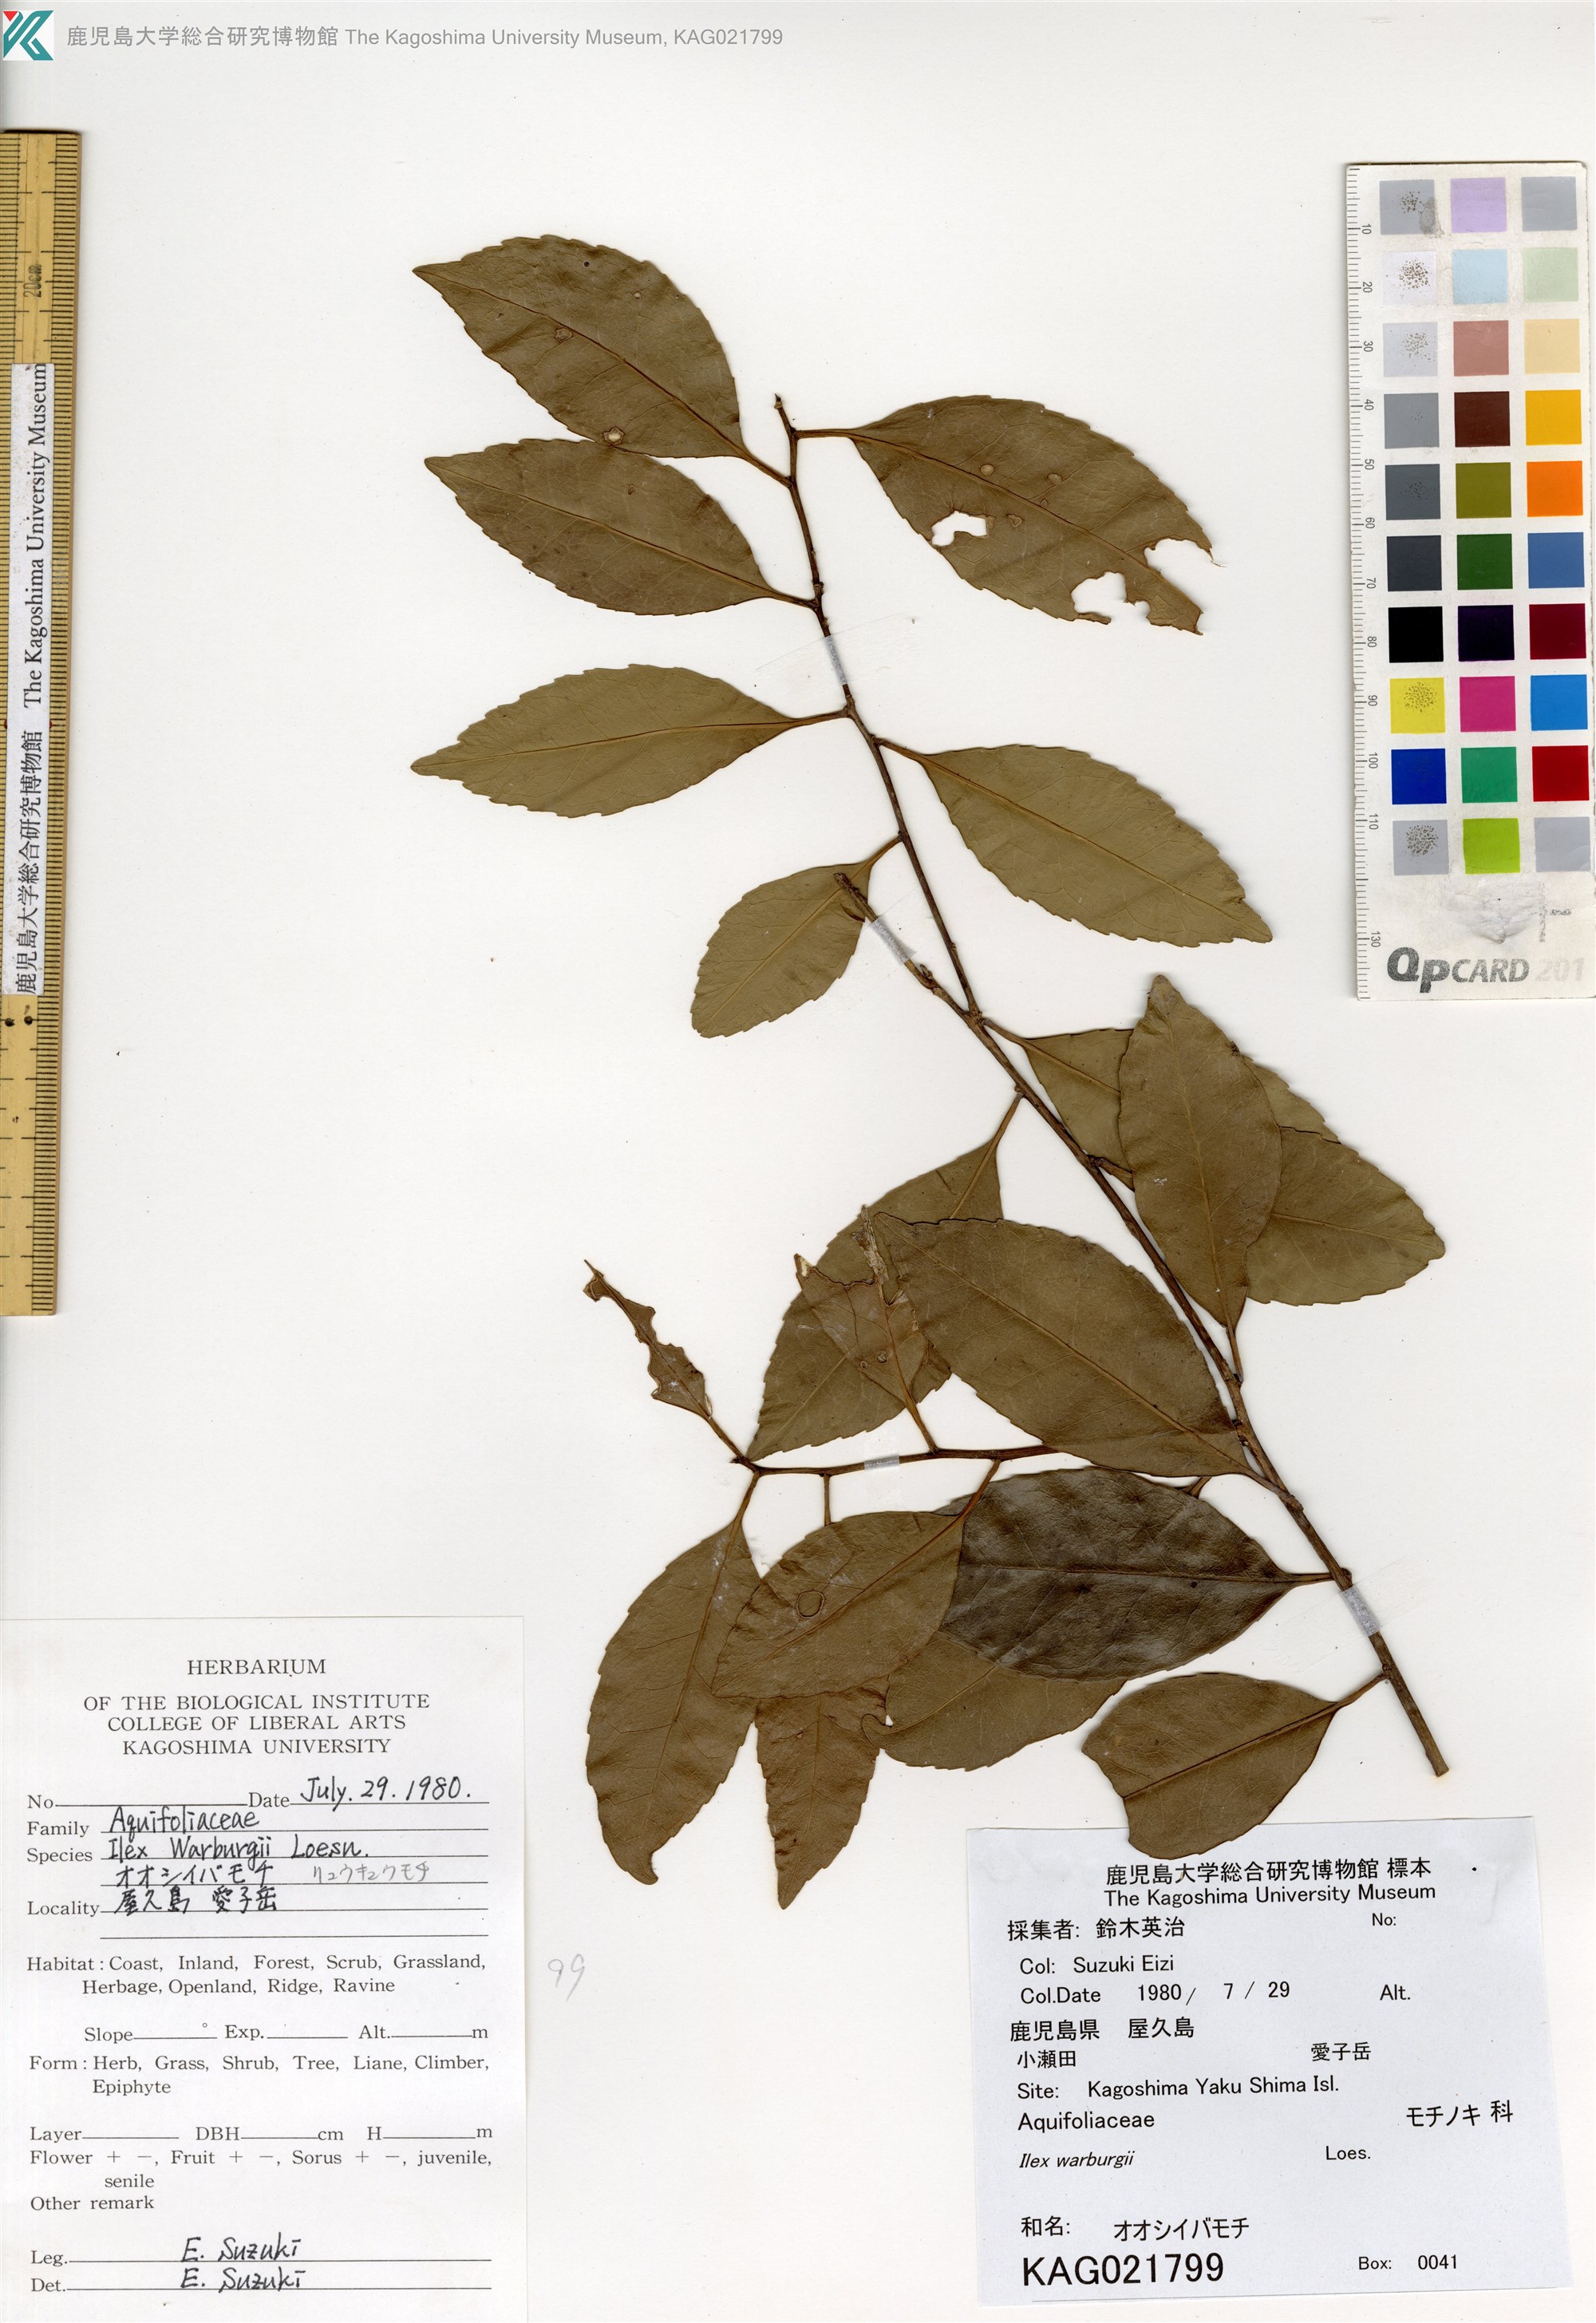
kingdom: Plantae
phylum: Tracheophyta
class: Magnoliopsida
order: Aquifoliales
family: Aquifoliaceae
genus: Ilex
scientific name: Ilex liukiuensis
